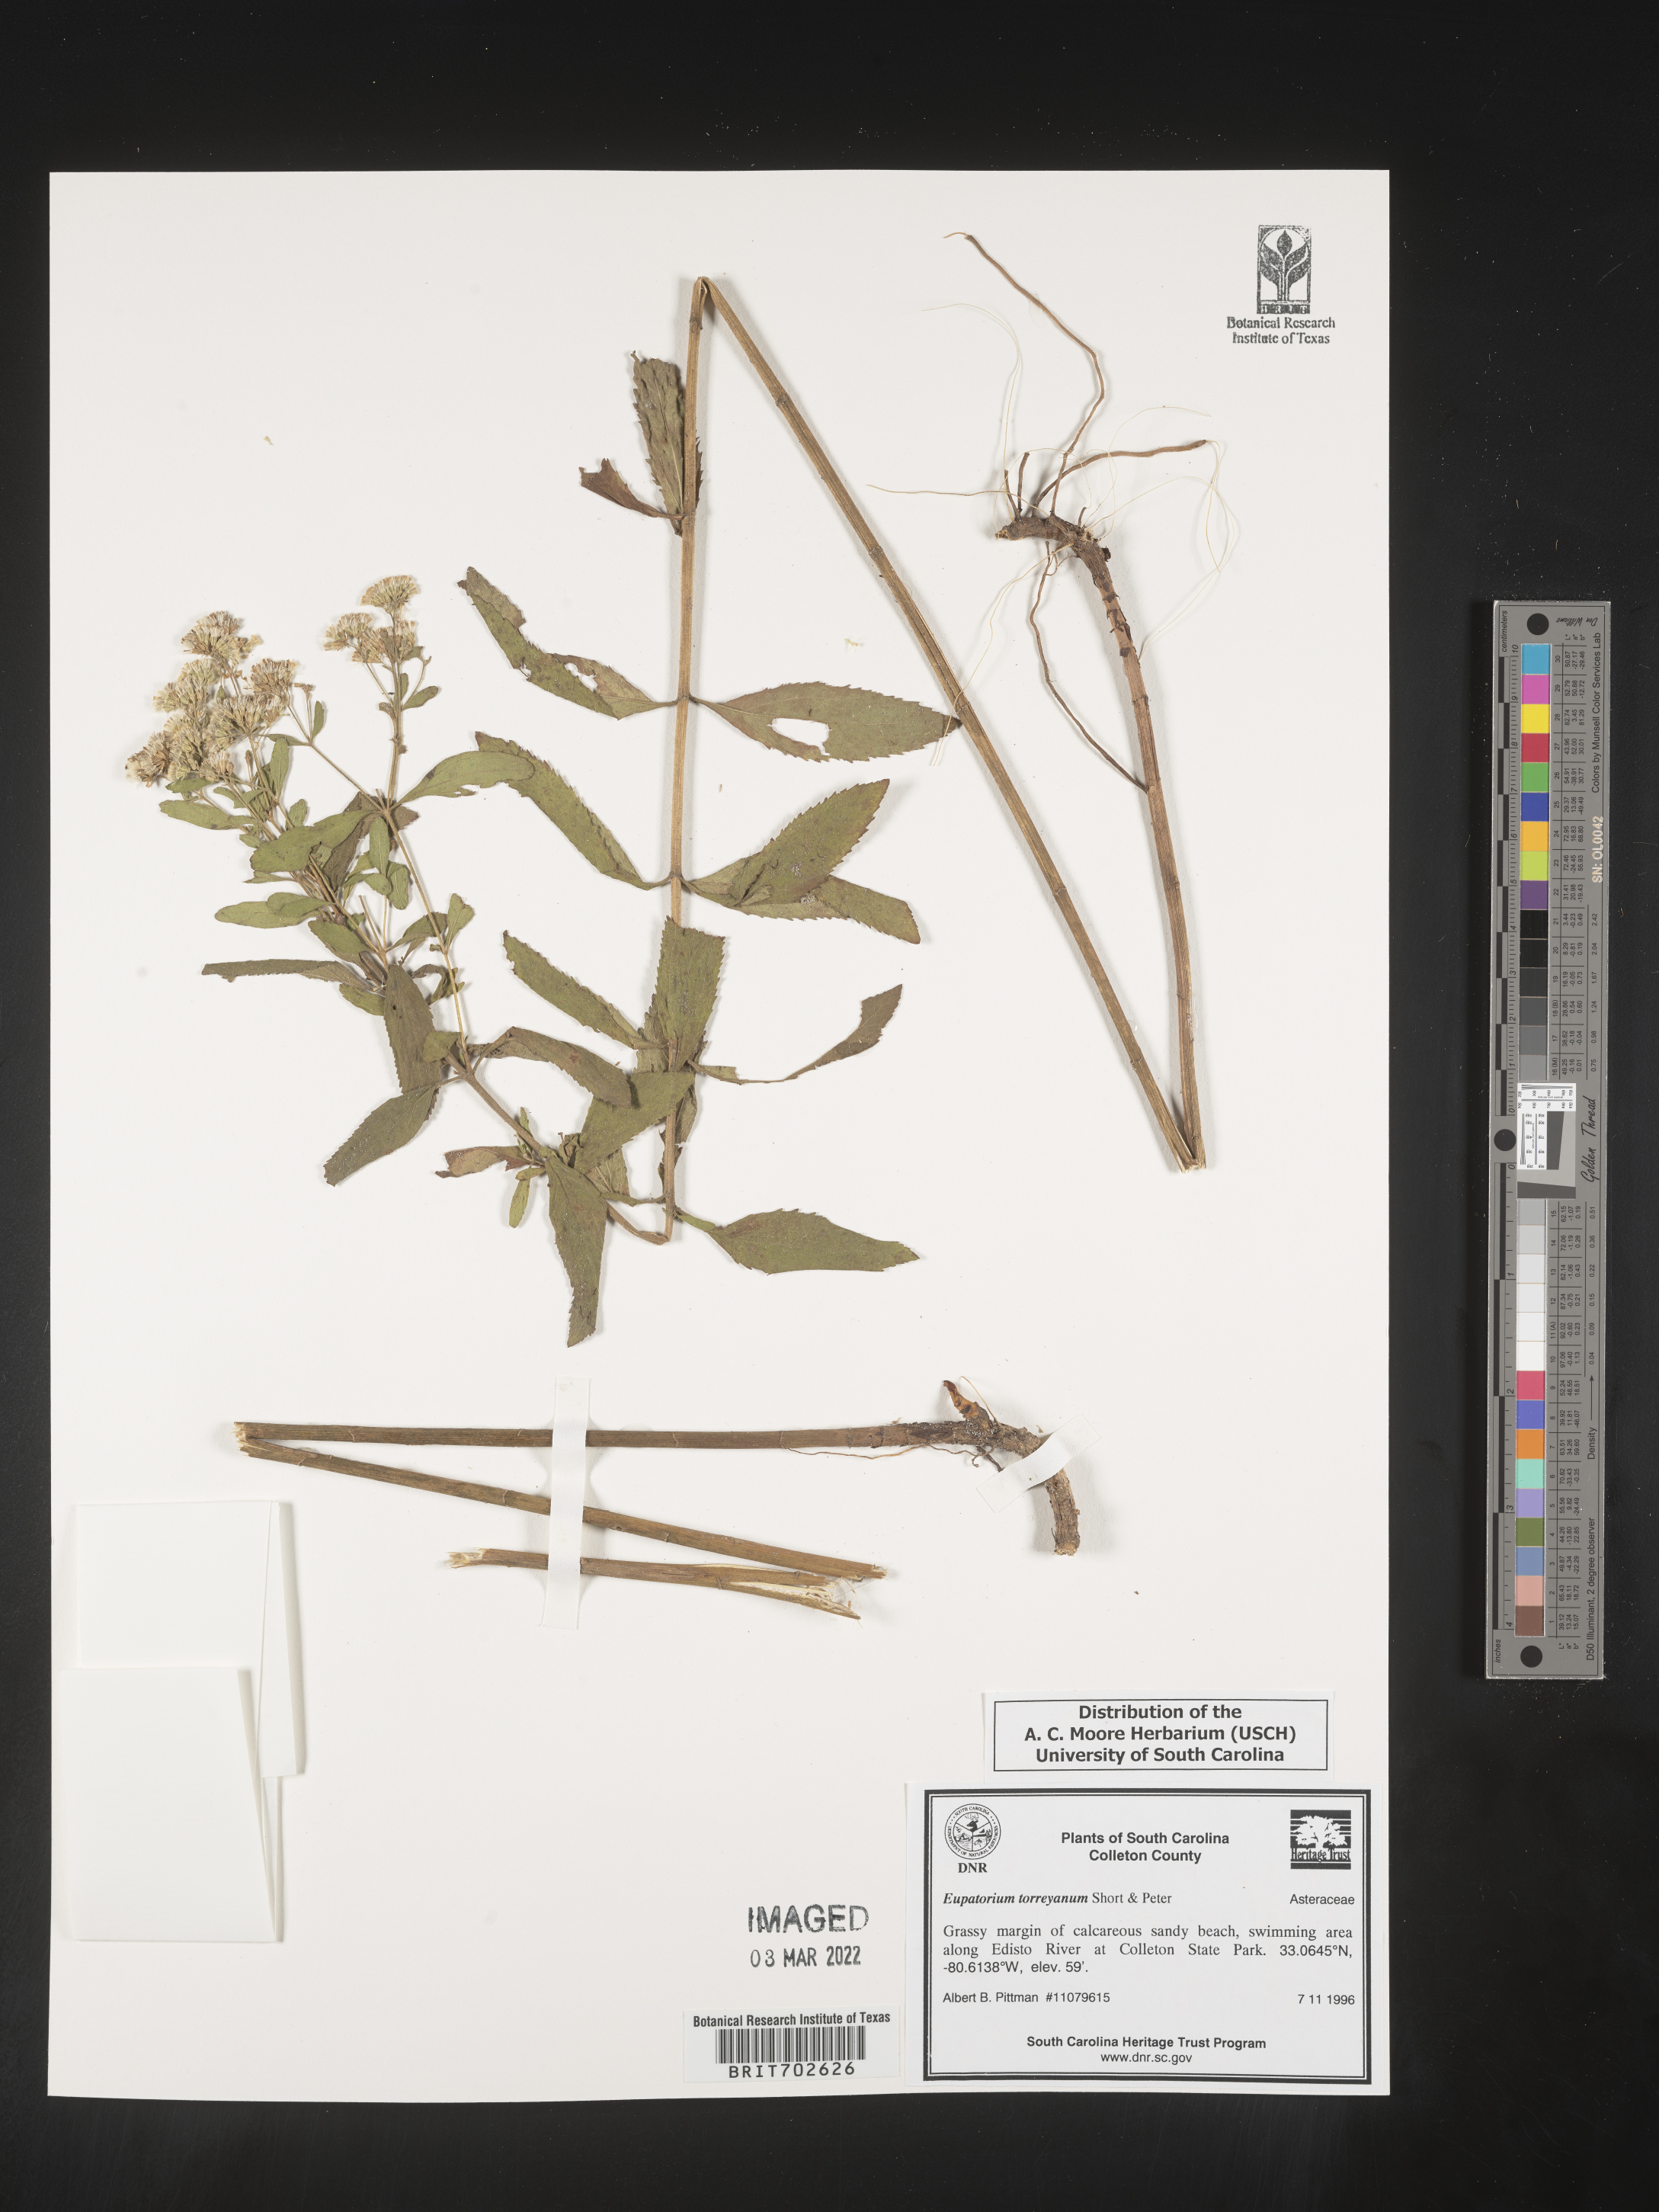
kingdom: Plantae
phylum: Tracheophyta
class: Magnoliopsida
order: Asterales
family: Asteraceae
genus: Eupatorium
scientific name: Eupatorium torreyanum
